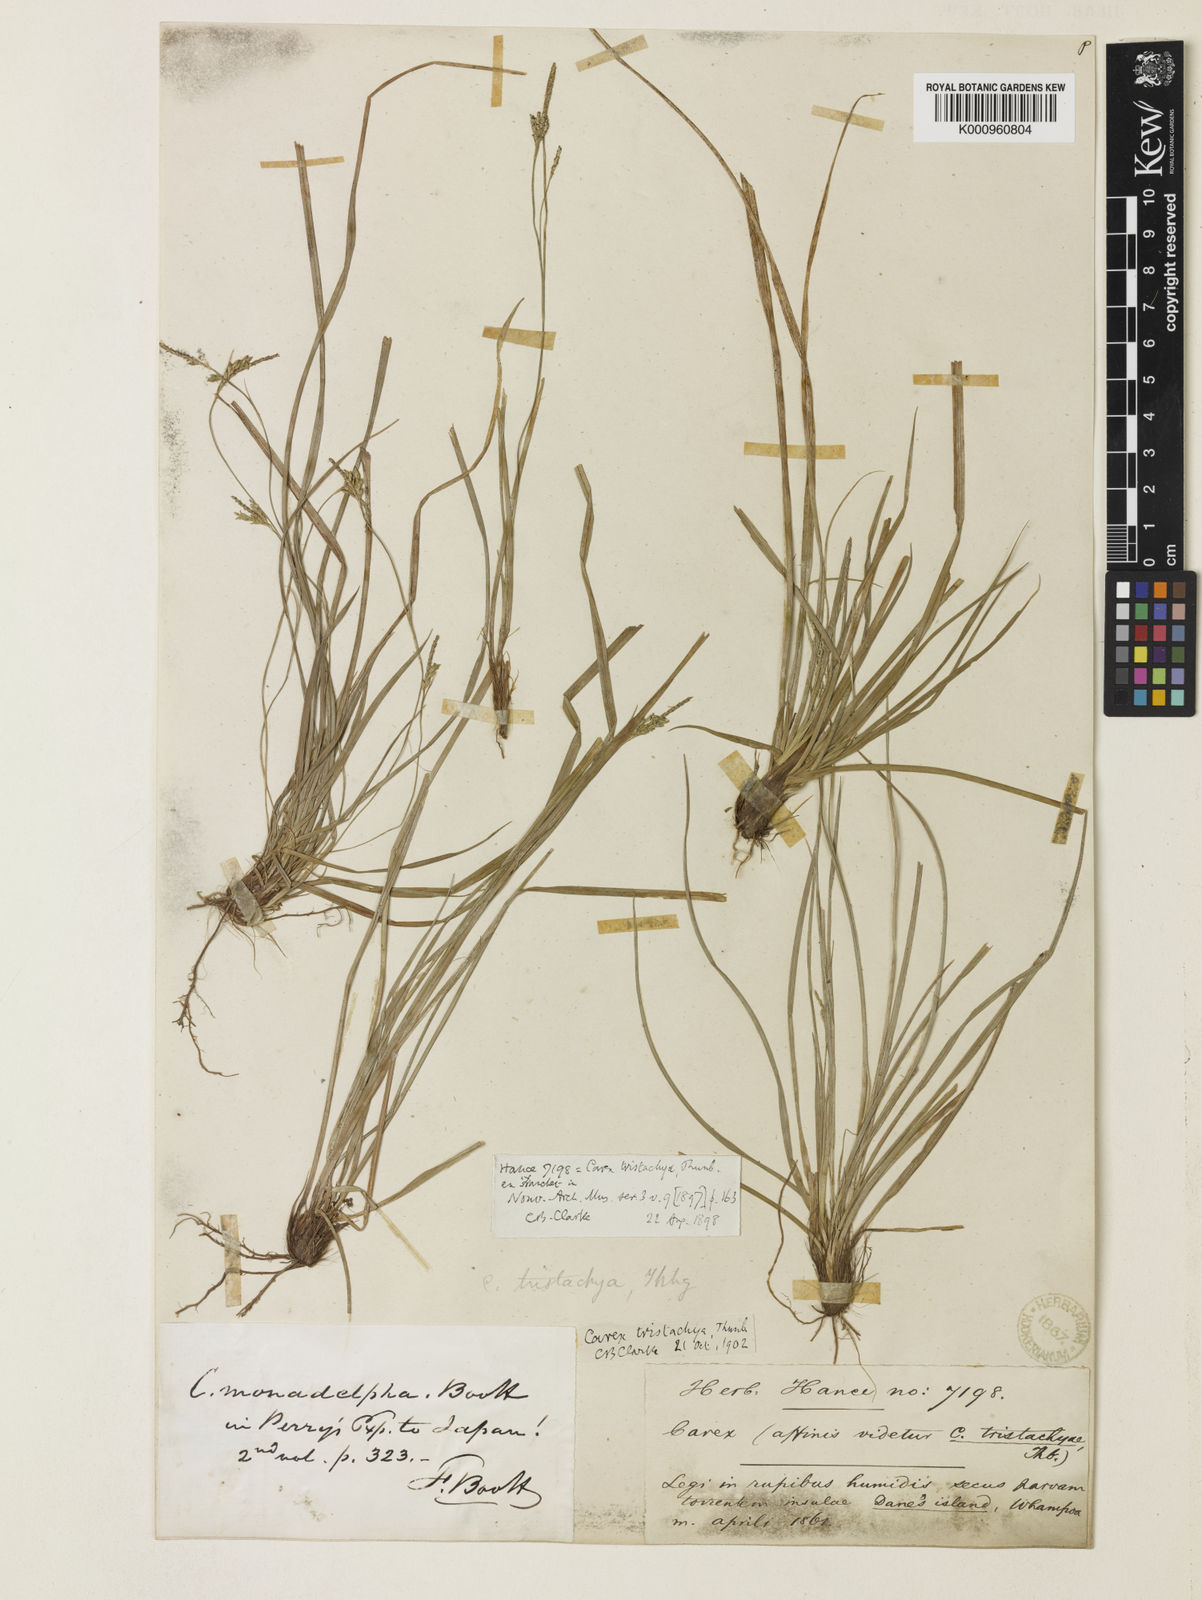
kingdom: Plantae
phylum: Tracheophyta
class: Liliopsida
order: Poales
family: Cyperaceae
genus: Carex
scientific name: Carex tristachya
